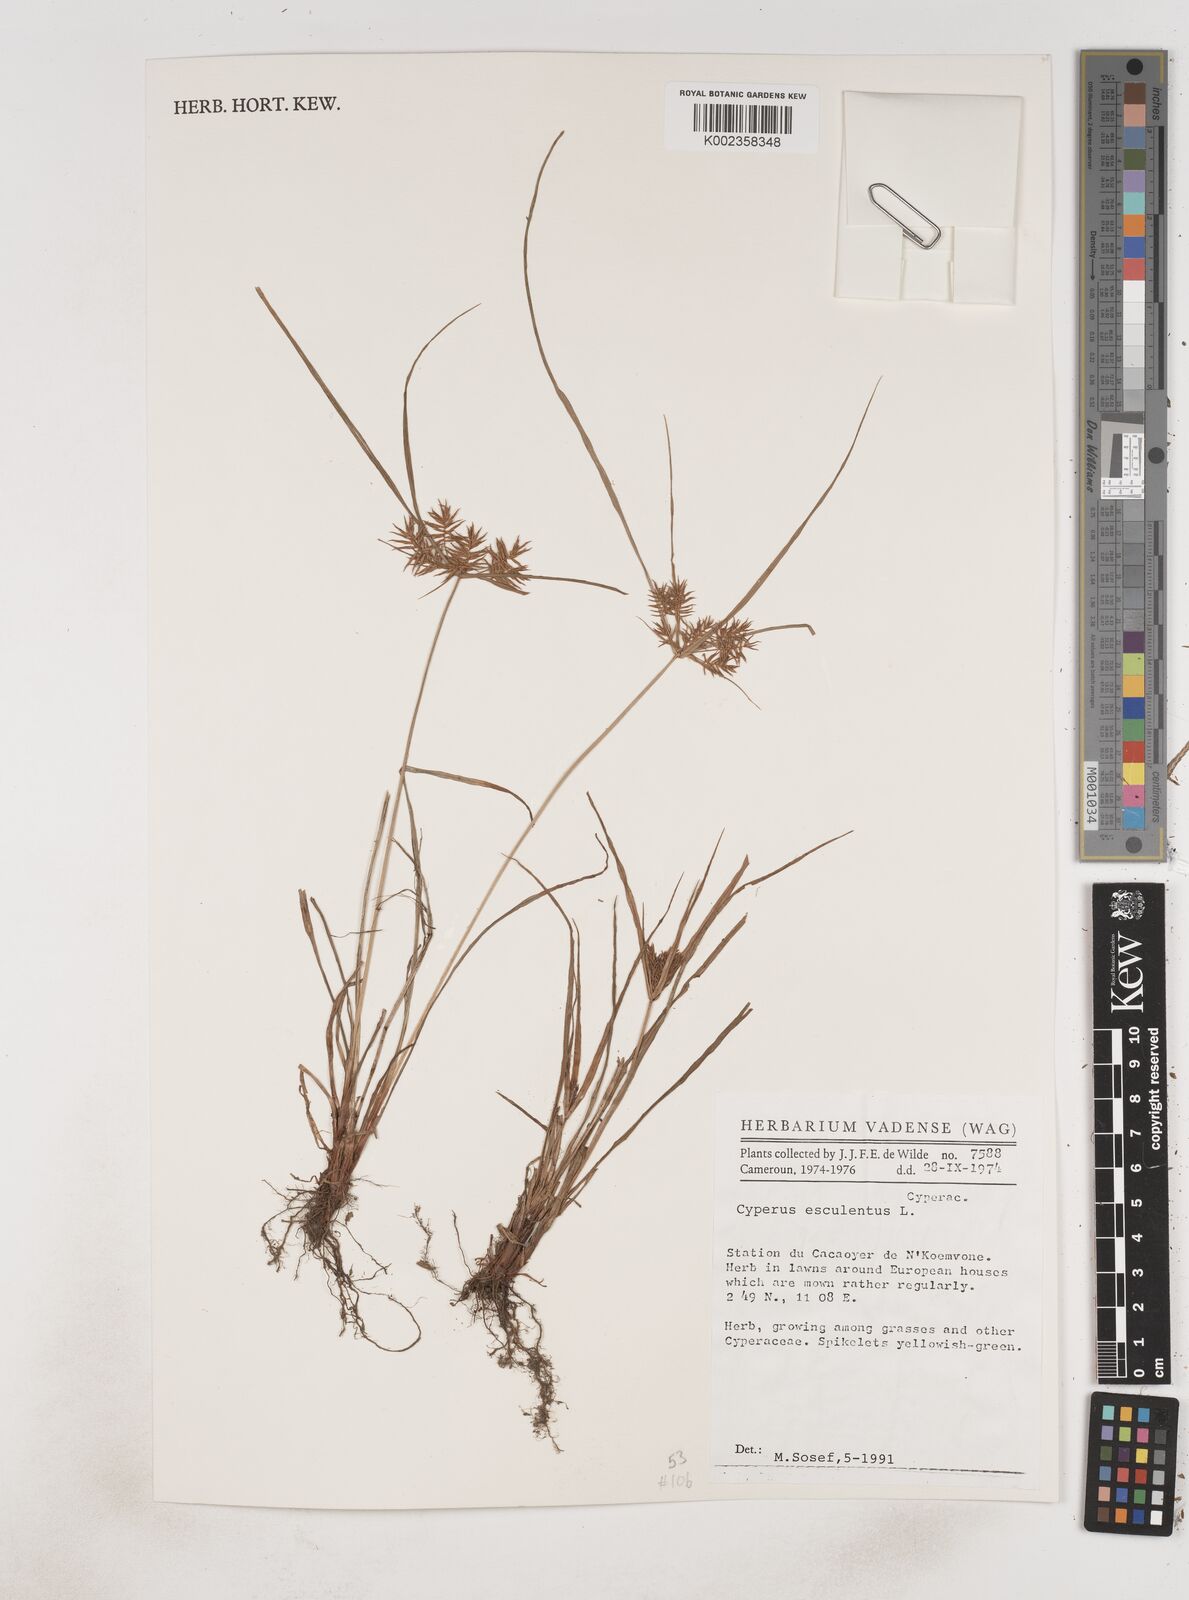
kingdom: Plantae
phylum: Tracheophyta
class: Liliopsida
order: Poales
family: Cyperaceae
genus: Cyperus
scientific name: Cyperus esculentus
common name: Yellow nutsedge
